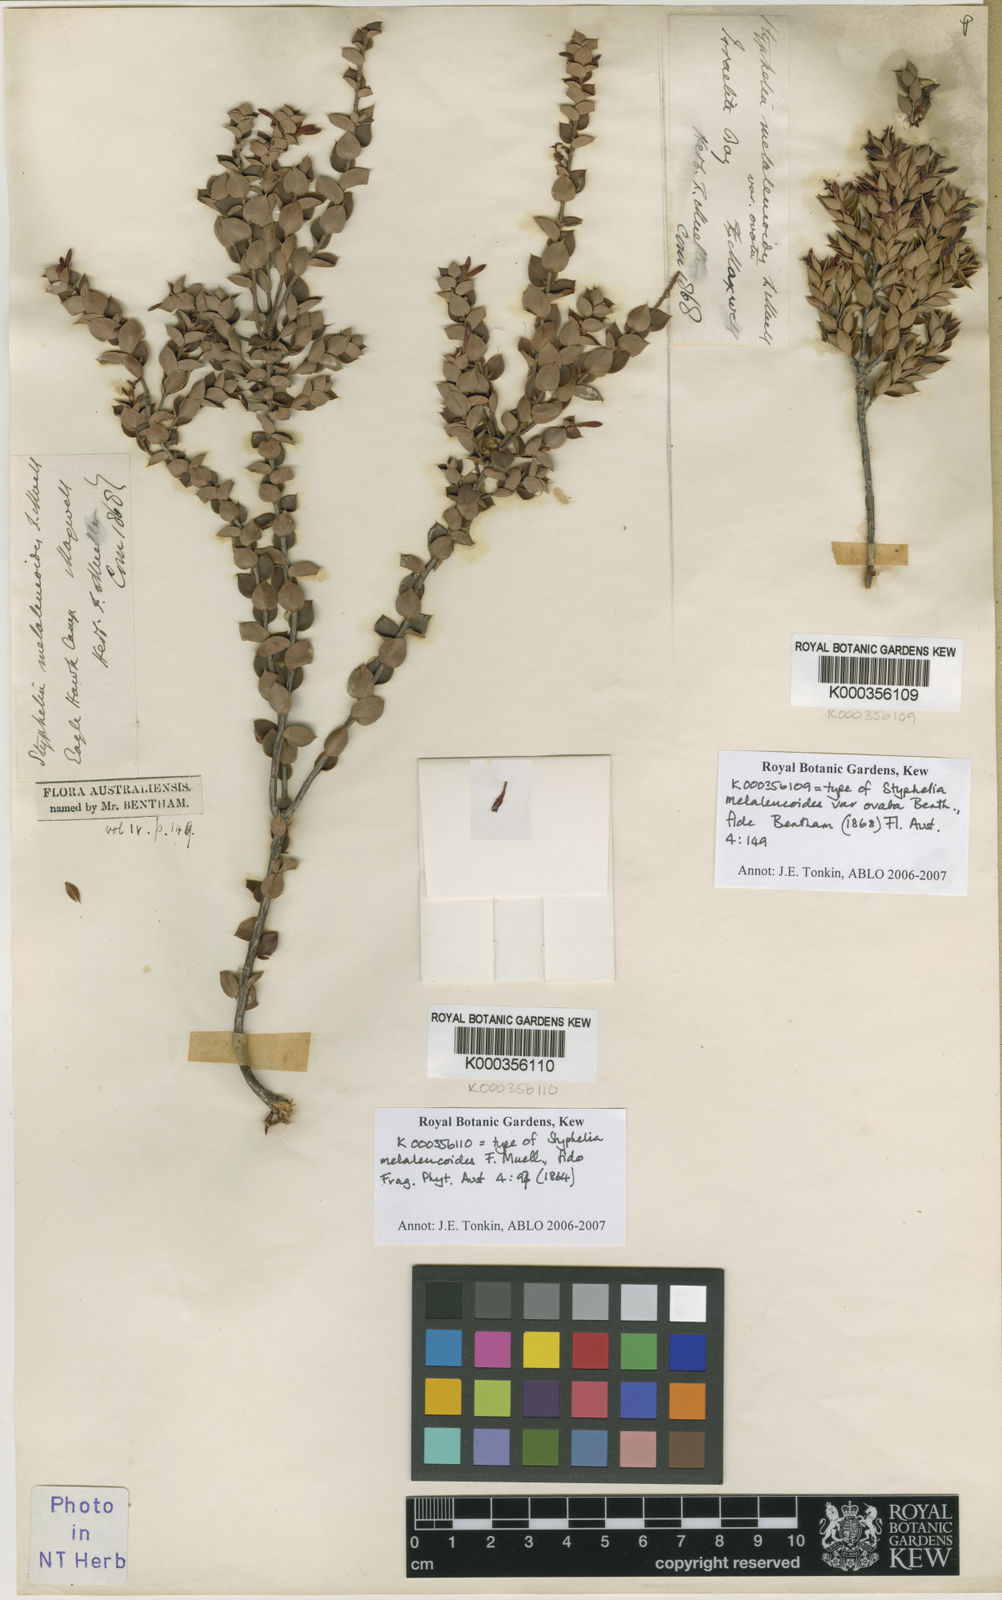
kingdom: Plantae
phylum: Tracheophyta
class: Magnoliopsida
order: Ericales
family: Ericaceae
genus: Styphelia
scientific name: Styphelia melaleucoides
